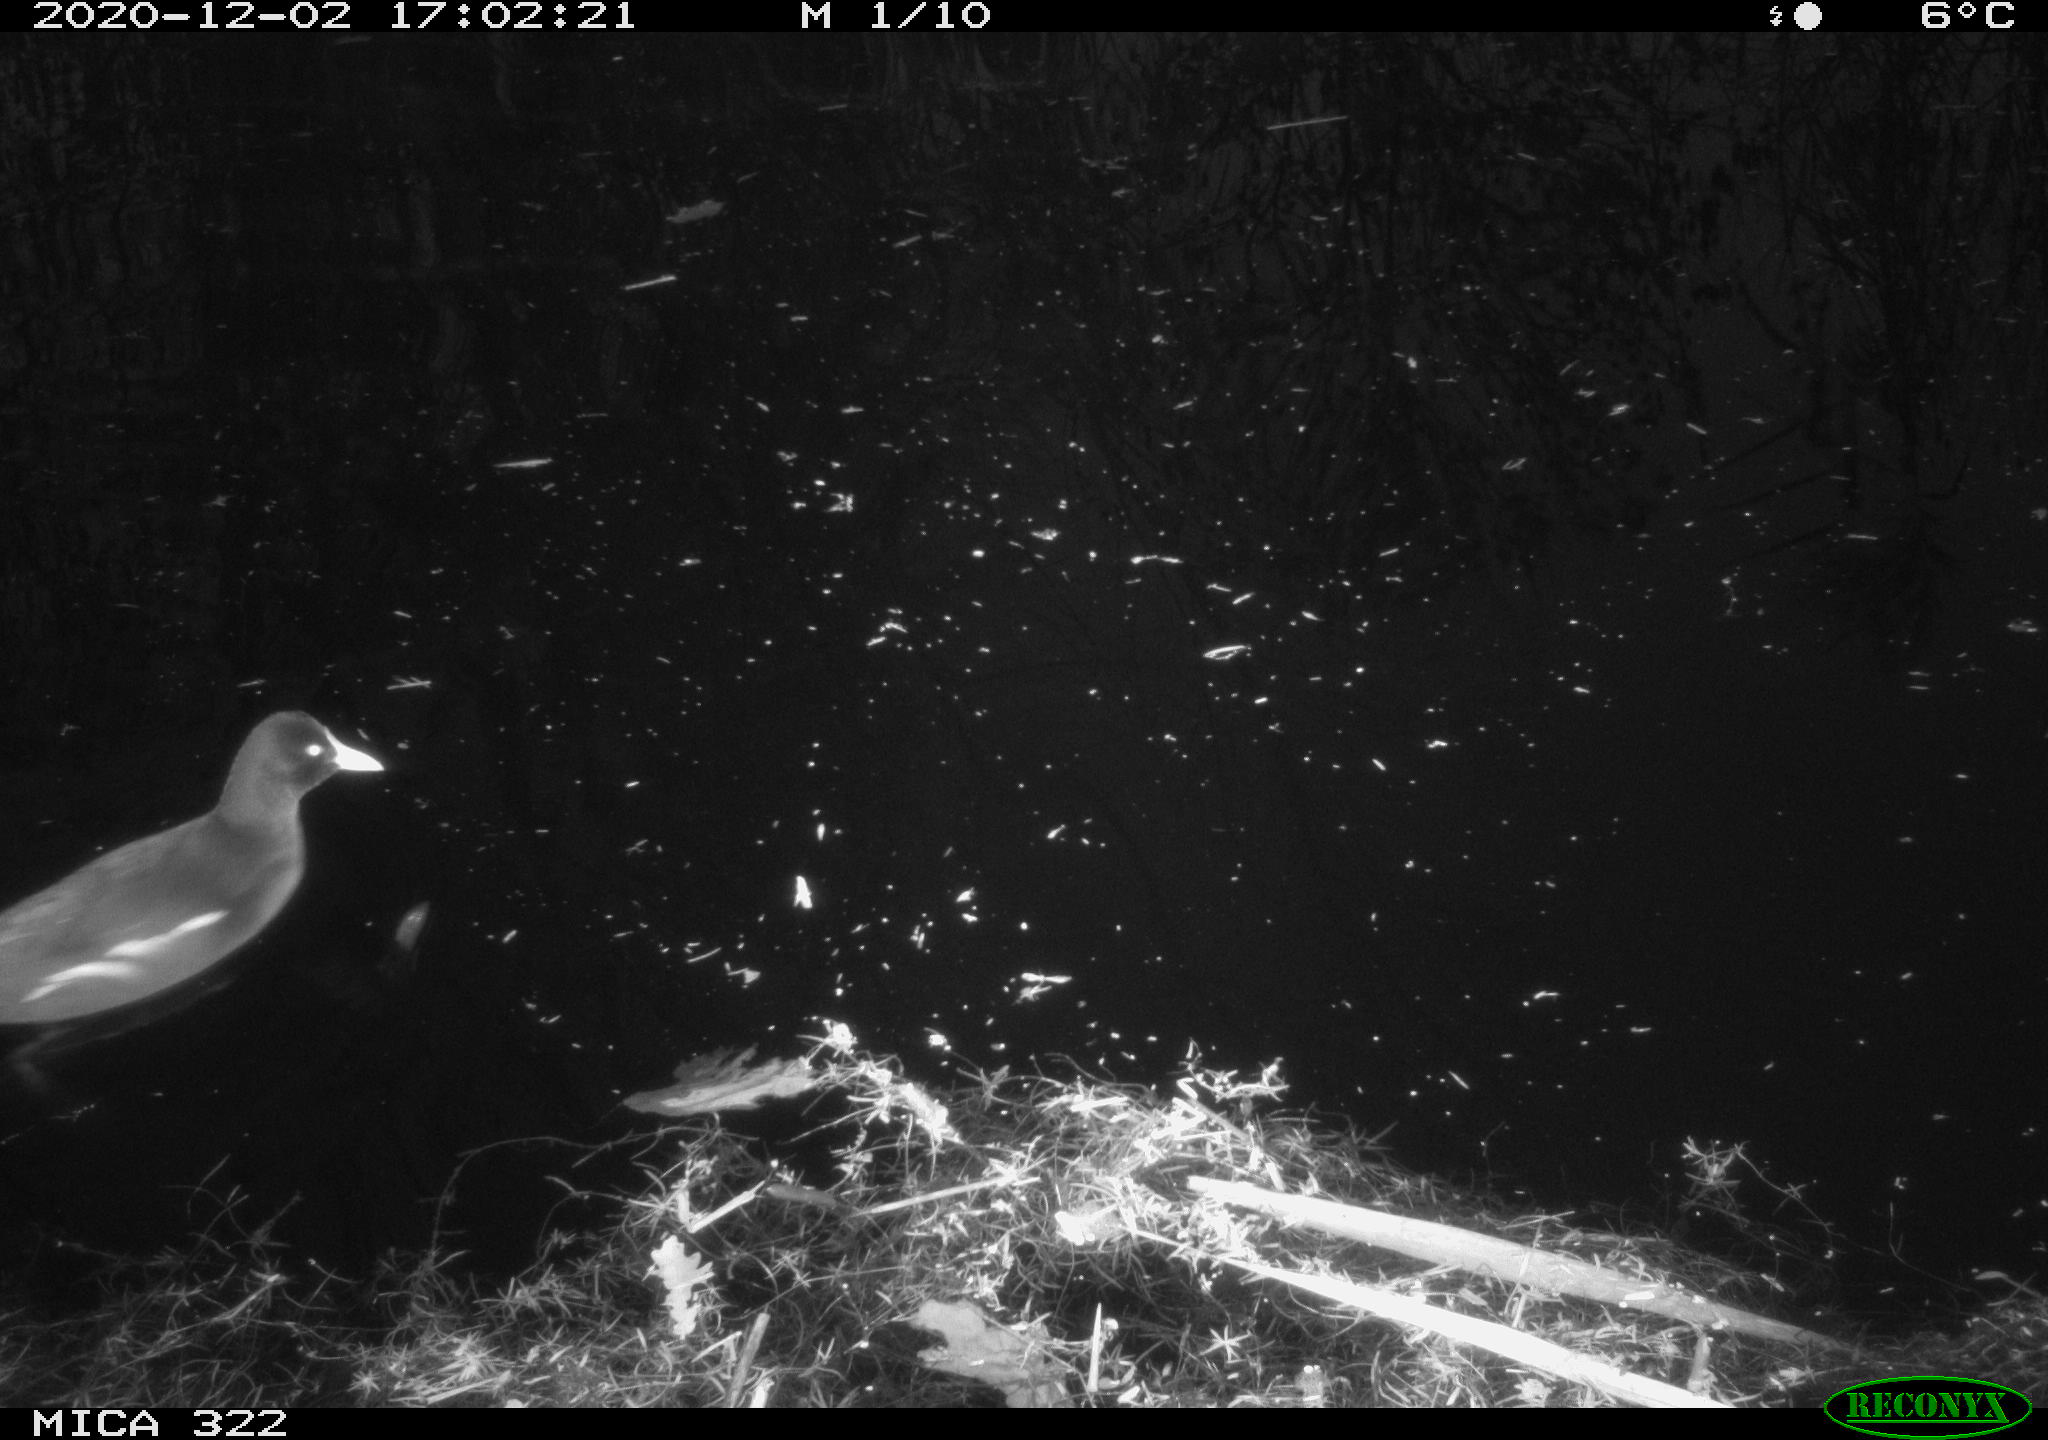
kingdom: Animalia
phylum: Chordata
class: Aves
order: Gruiformes
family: Rallidae
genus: Gallinula
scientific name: Gallinula chloropus
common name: Common moorhen
